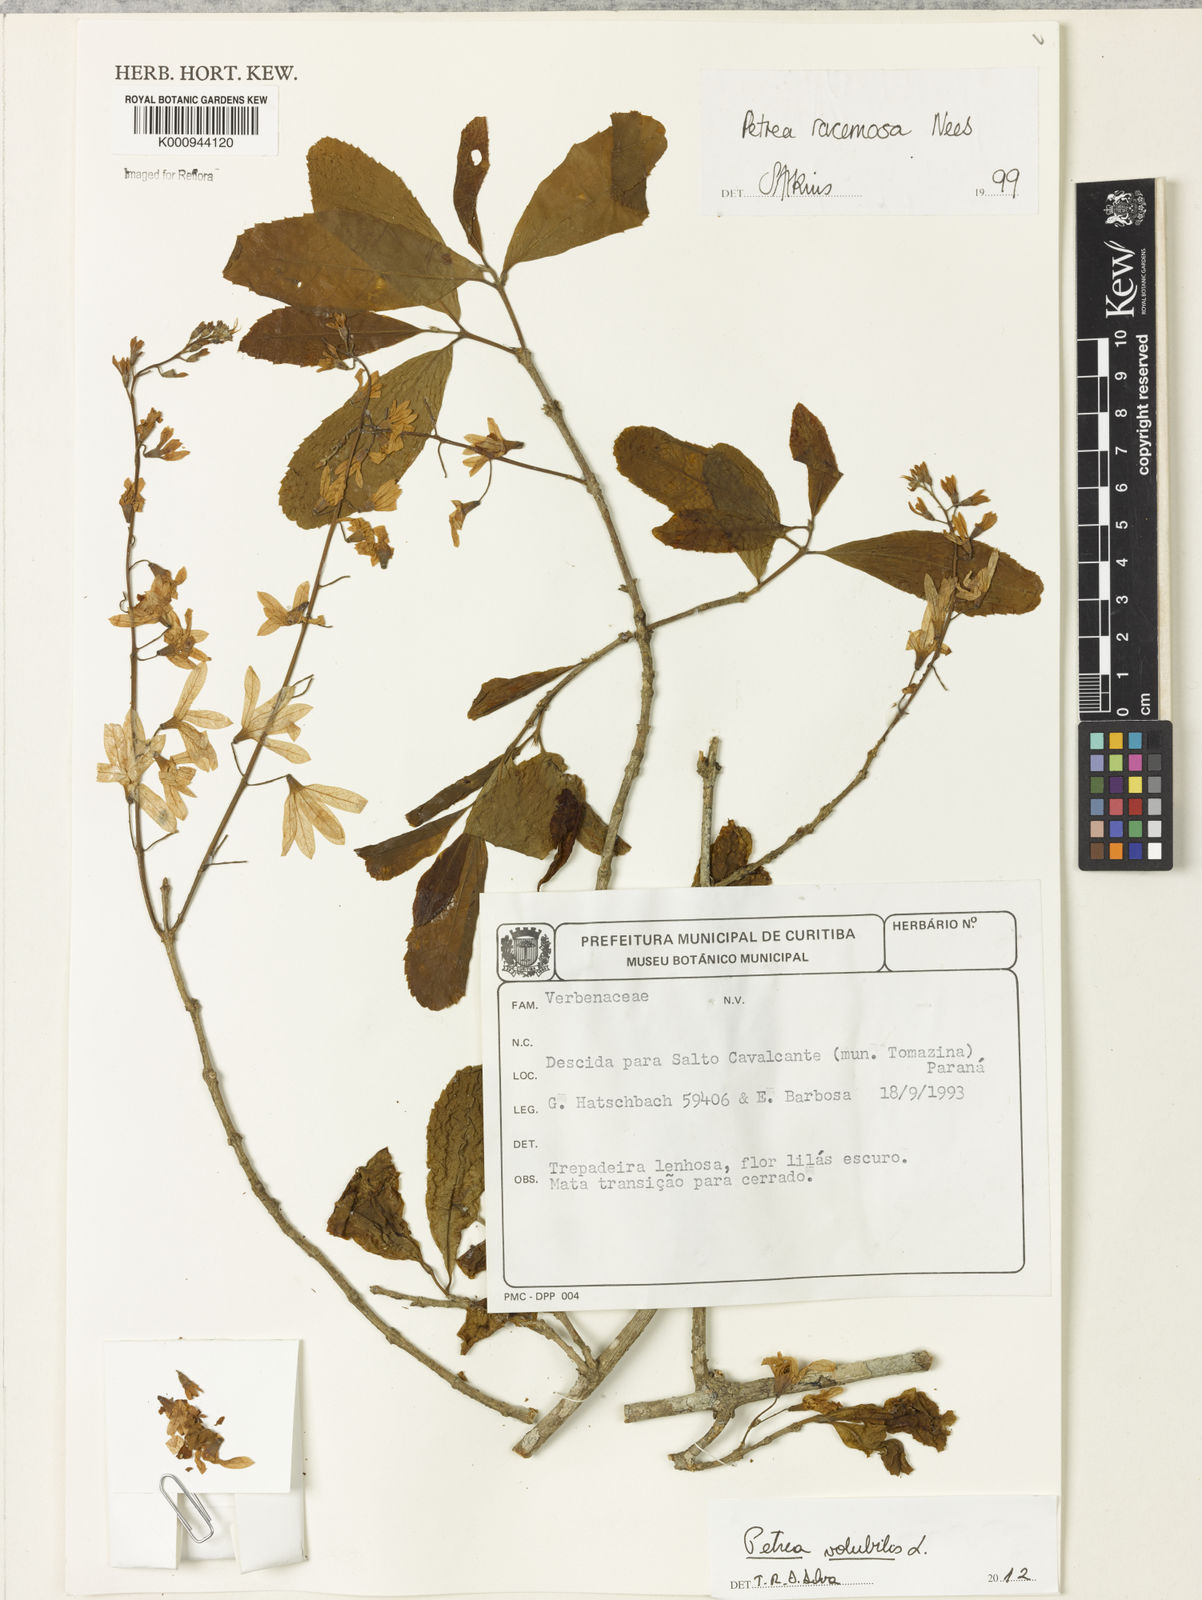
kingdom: Plantae
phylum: Tracheophyta
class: Magnoliopsida
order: Lamiales
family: Verbenaceae
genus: Petrea
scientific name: Petrea volubilis
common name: Queen's-wreath
